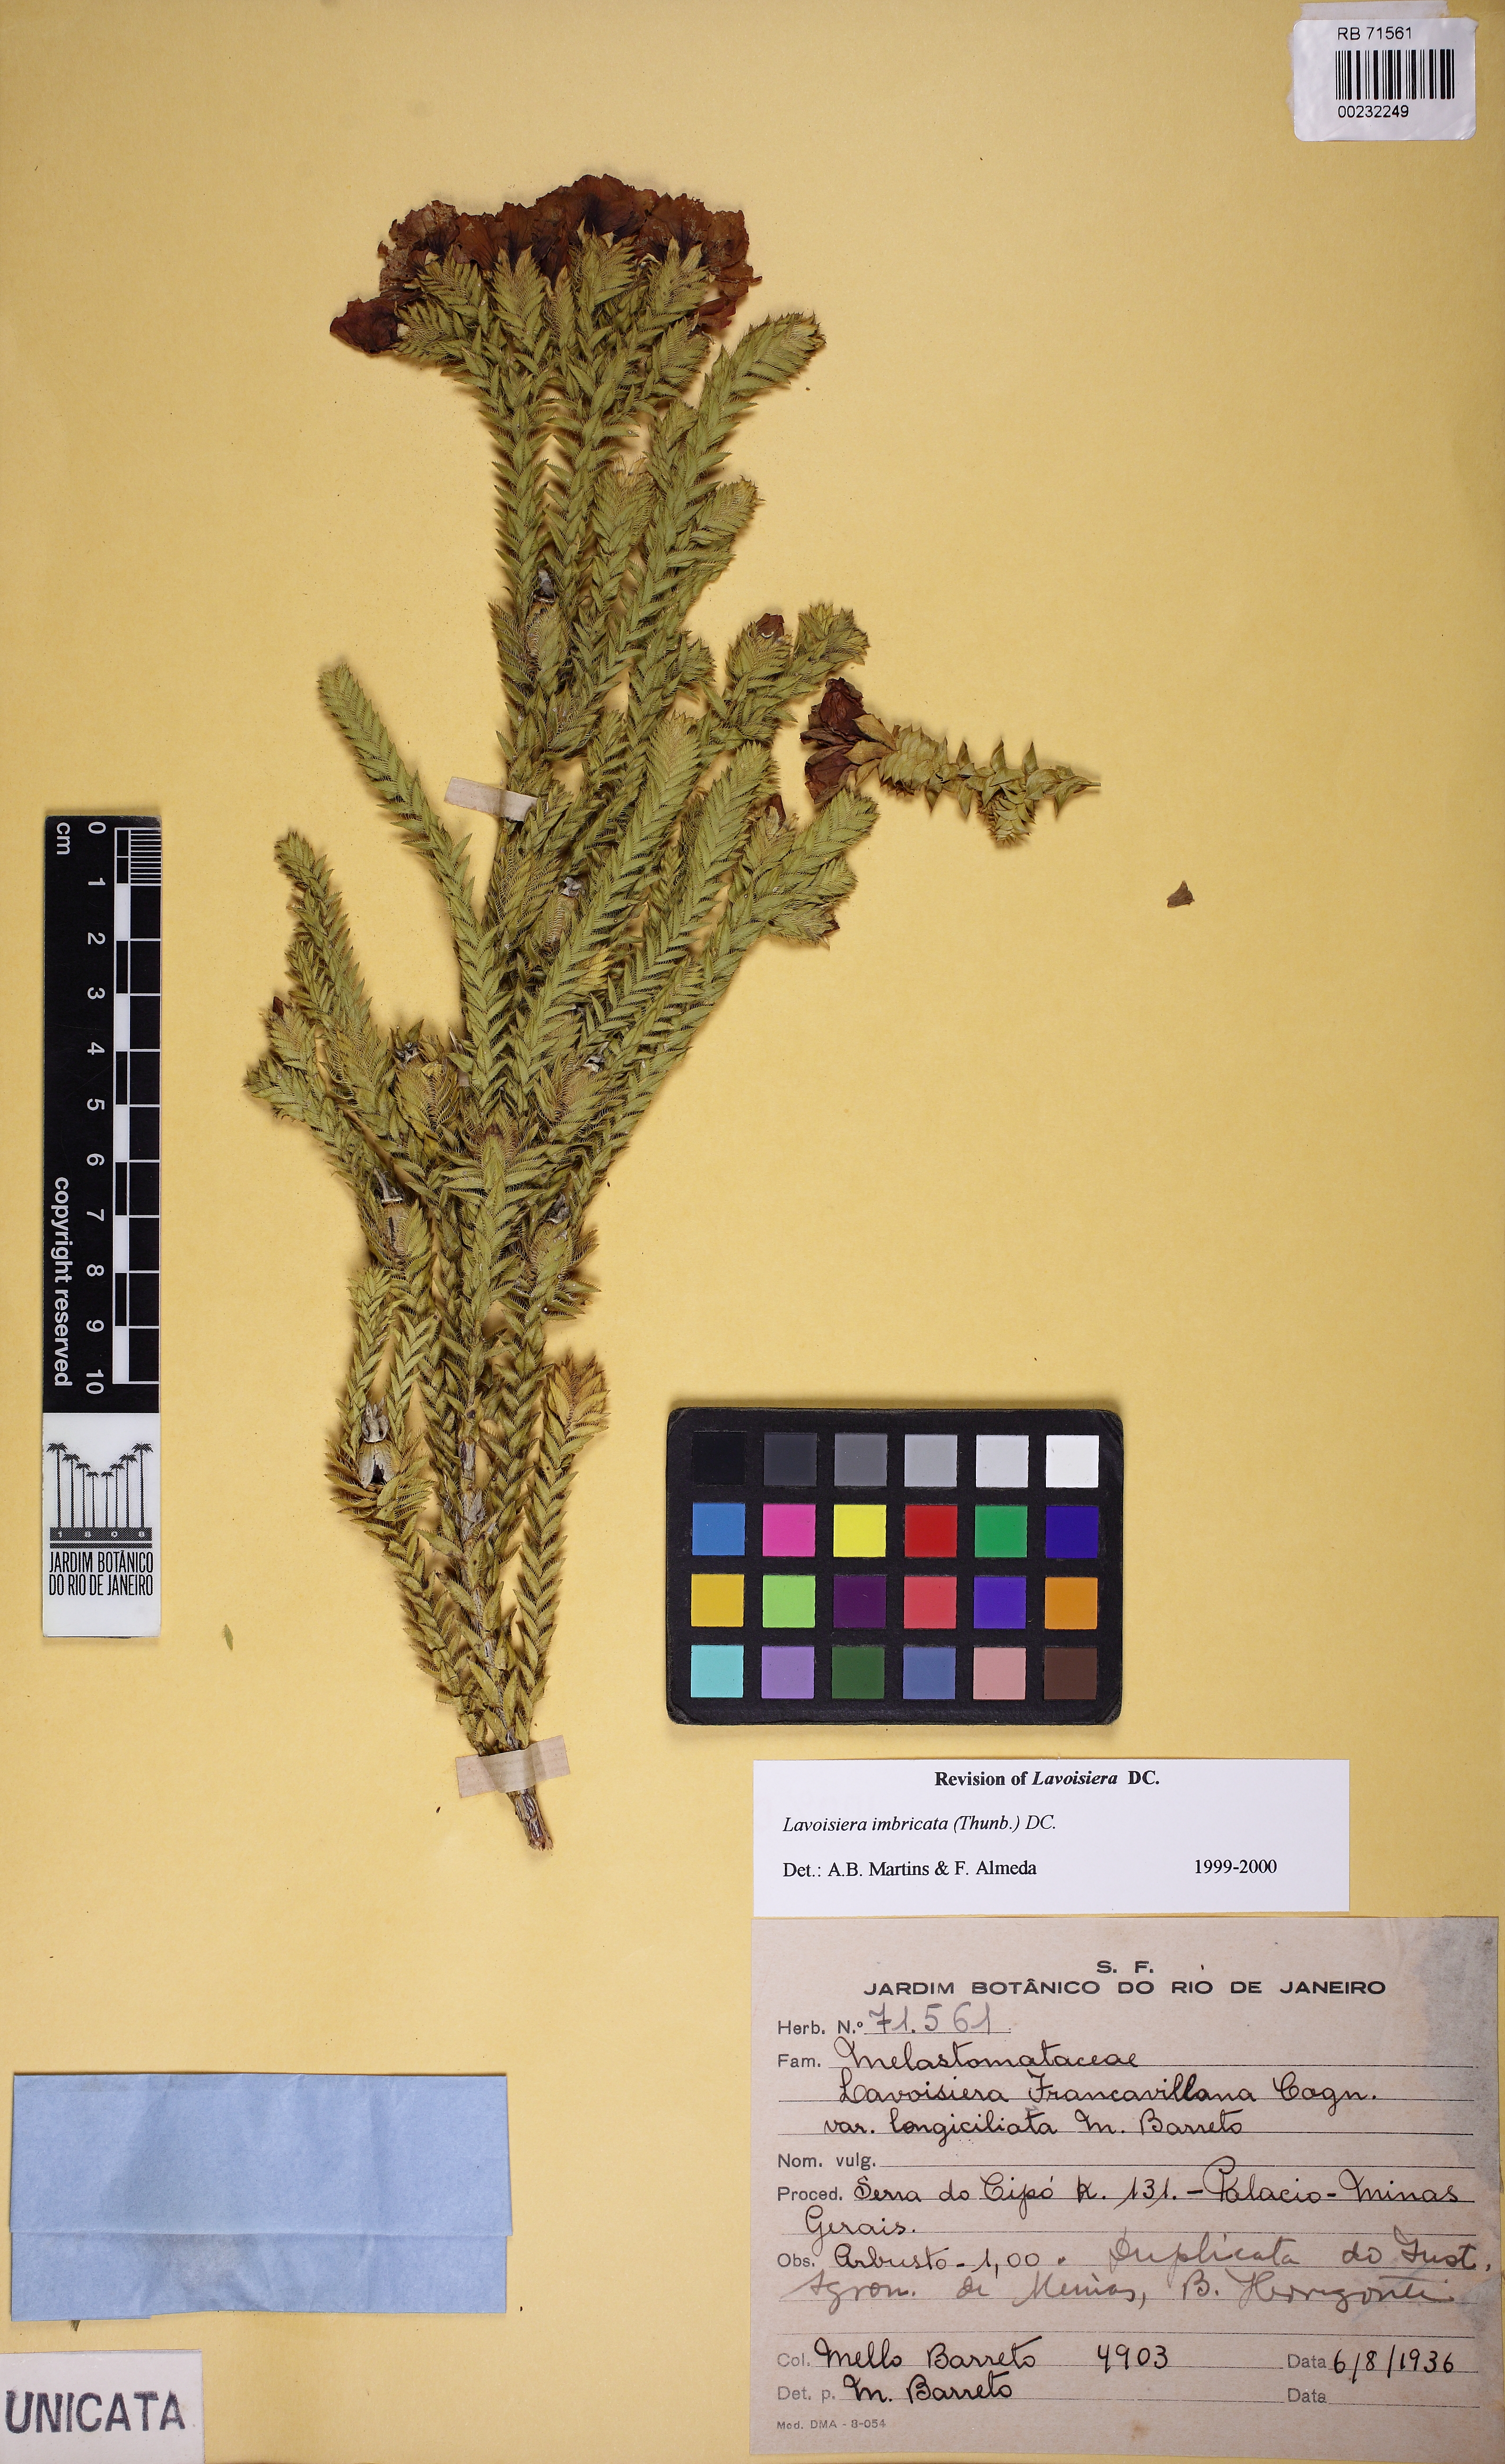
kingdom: Plantae
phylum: Tracheophyta
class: Magnoliopsida
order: Myrtales
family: Melastomataceae
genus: Microlicia
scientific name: Microlicia cataphracta
